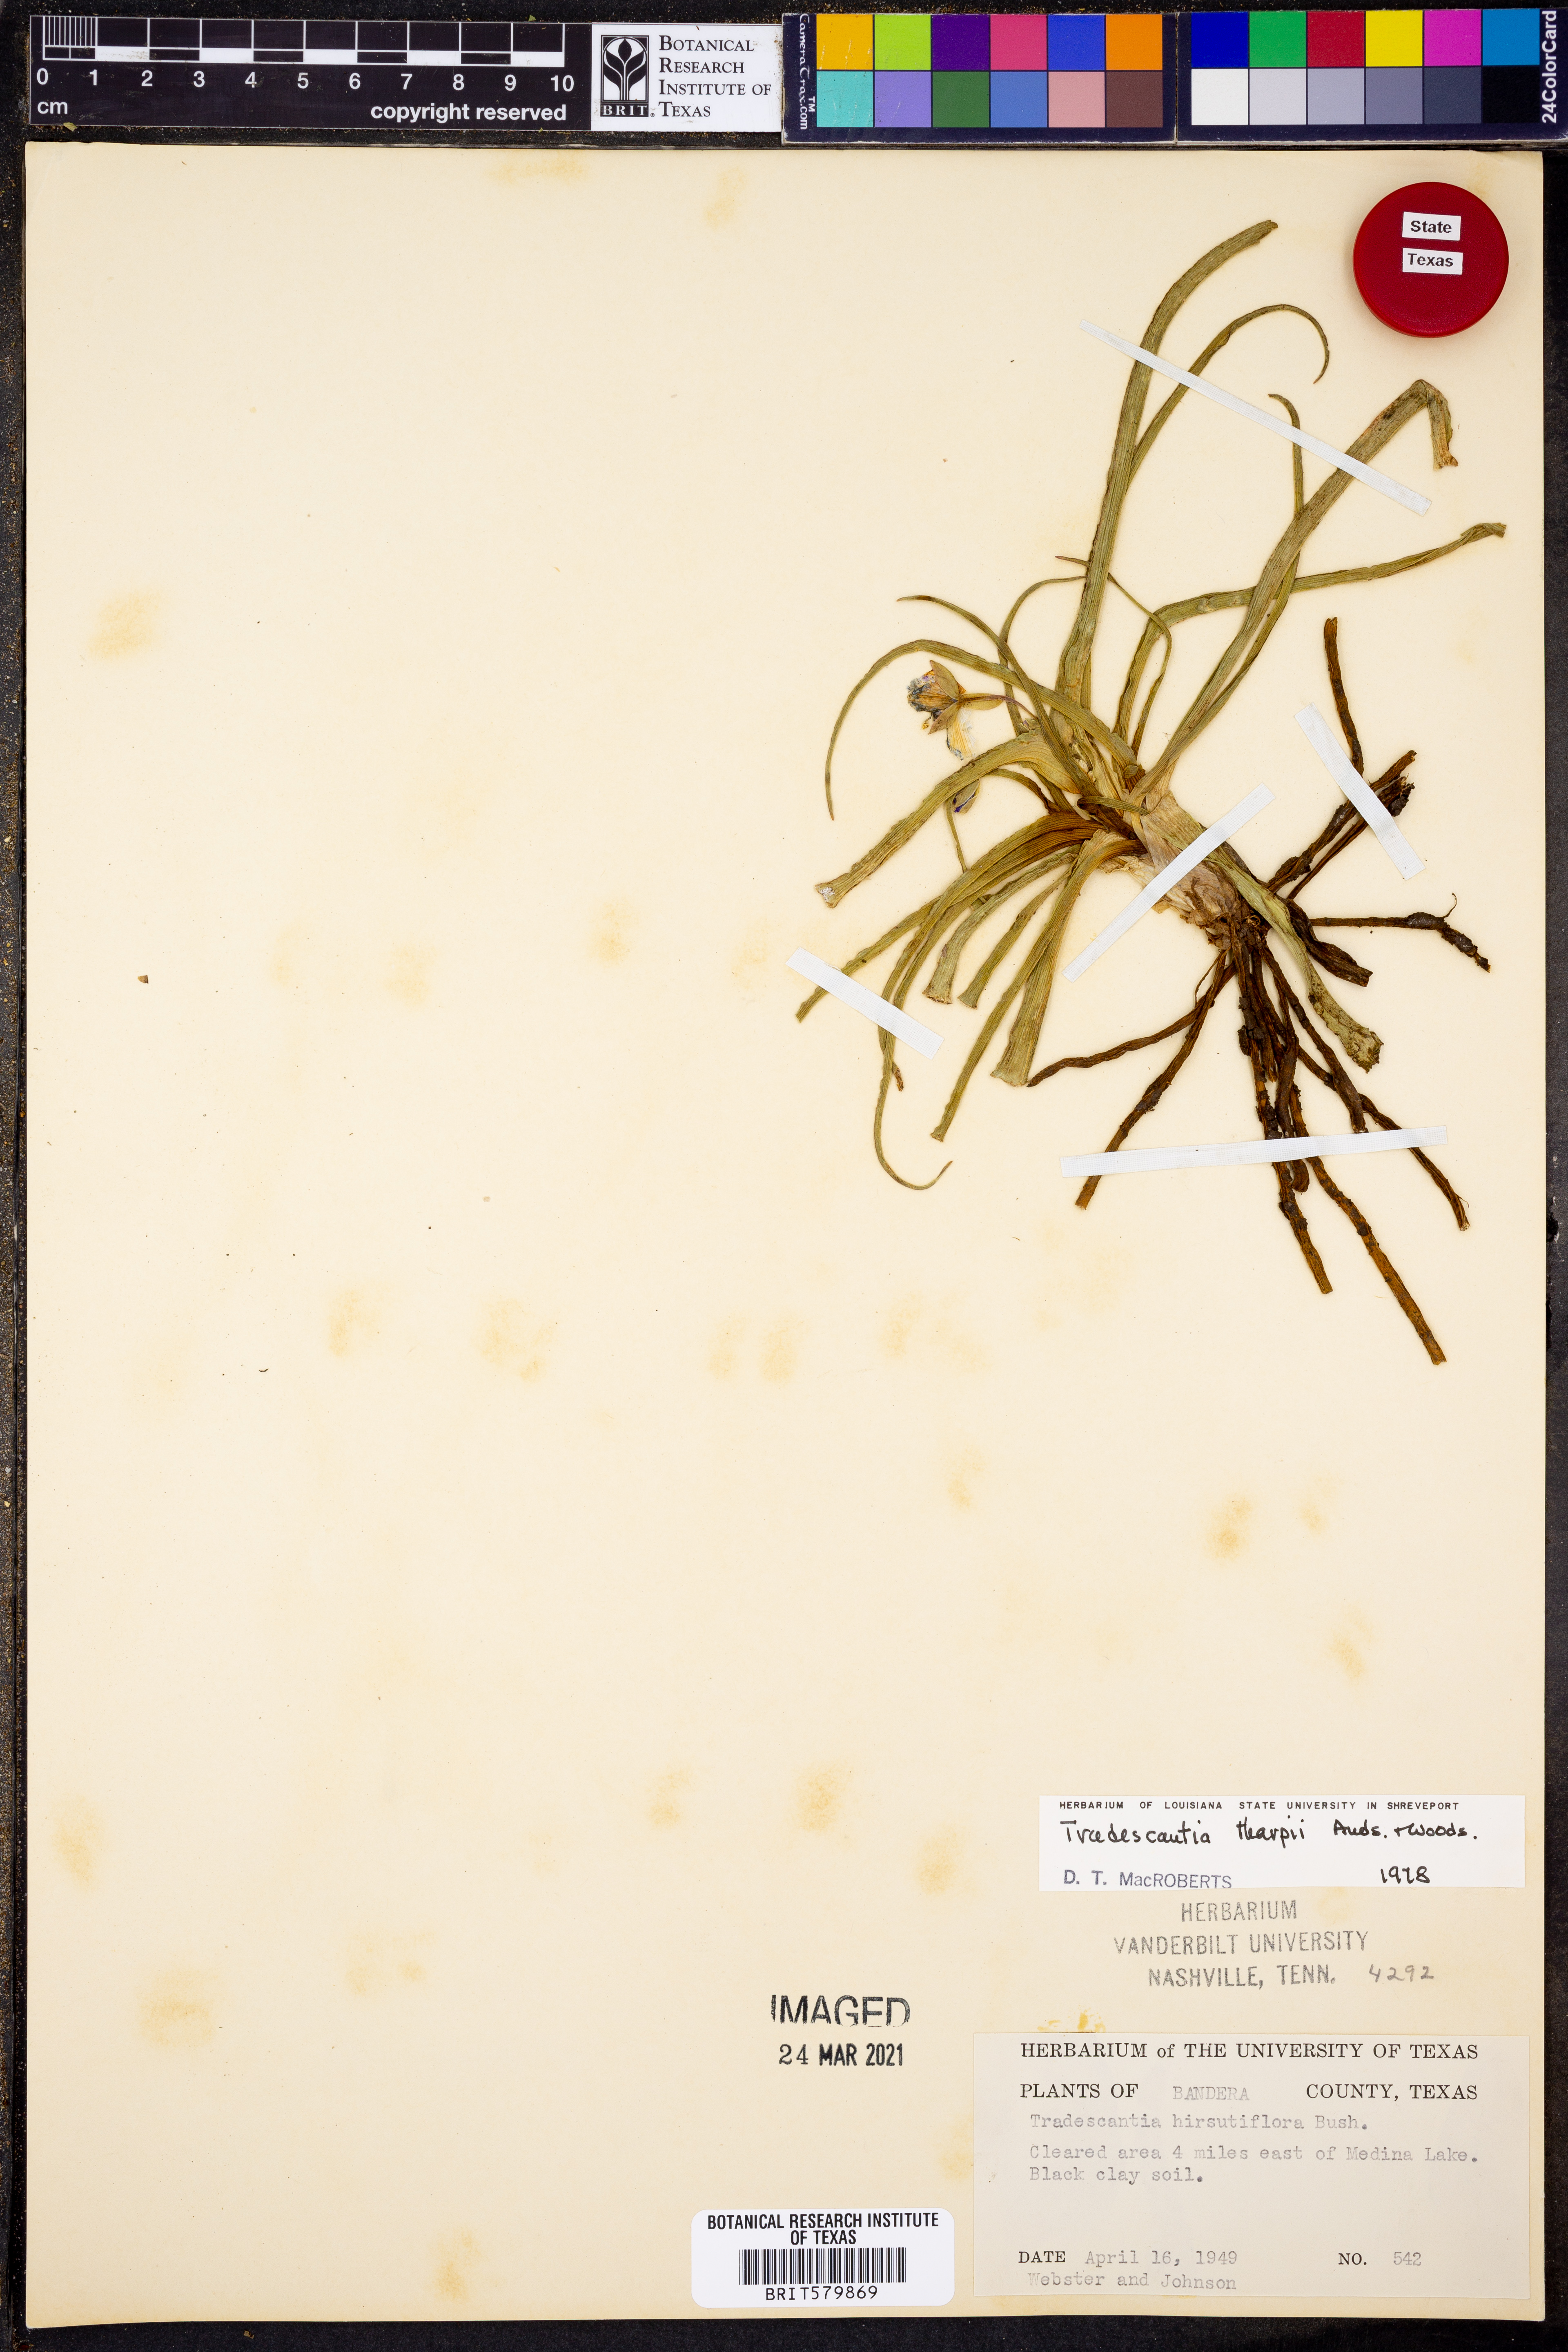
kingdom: Plantae
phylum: Tracheophyta
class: Liliopsida
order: Commelinales
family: Commelinaceae
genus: Tradescantia
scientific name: Tradescantia tharpii
